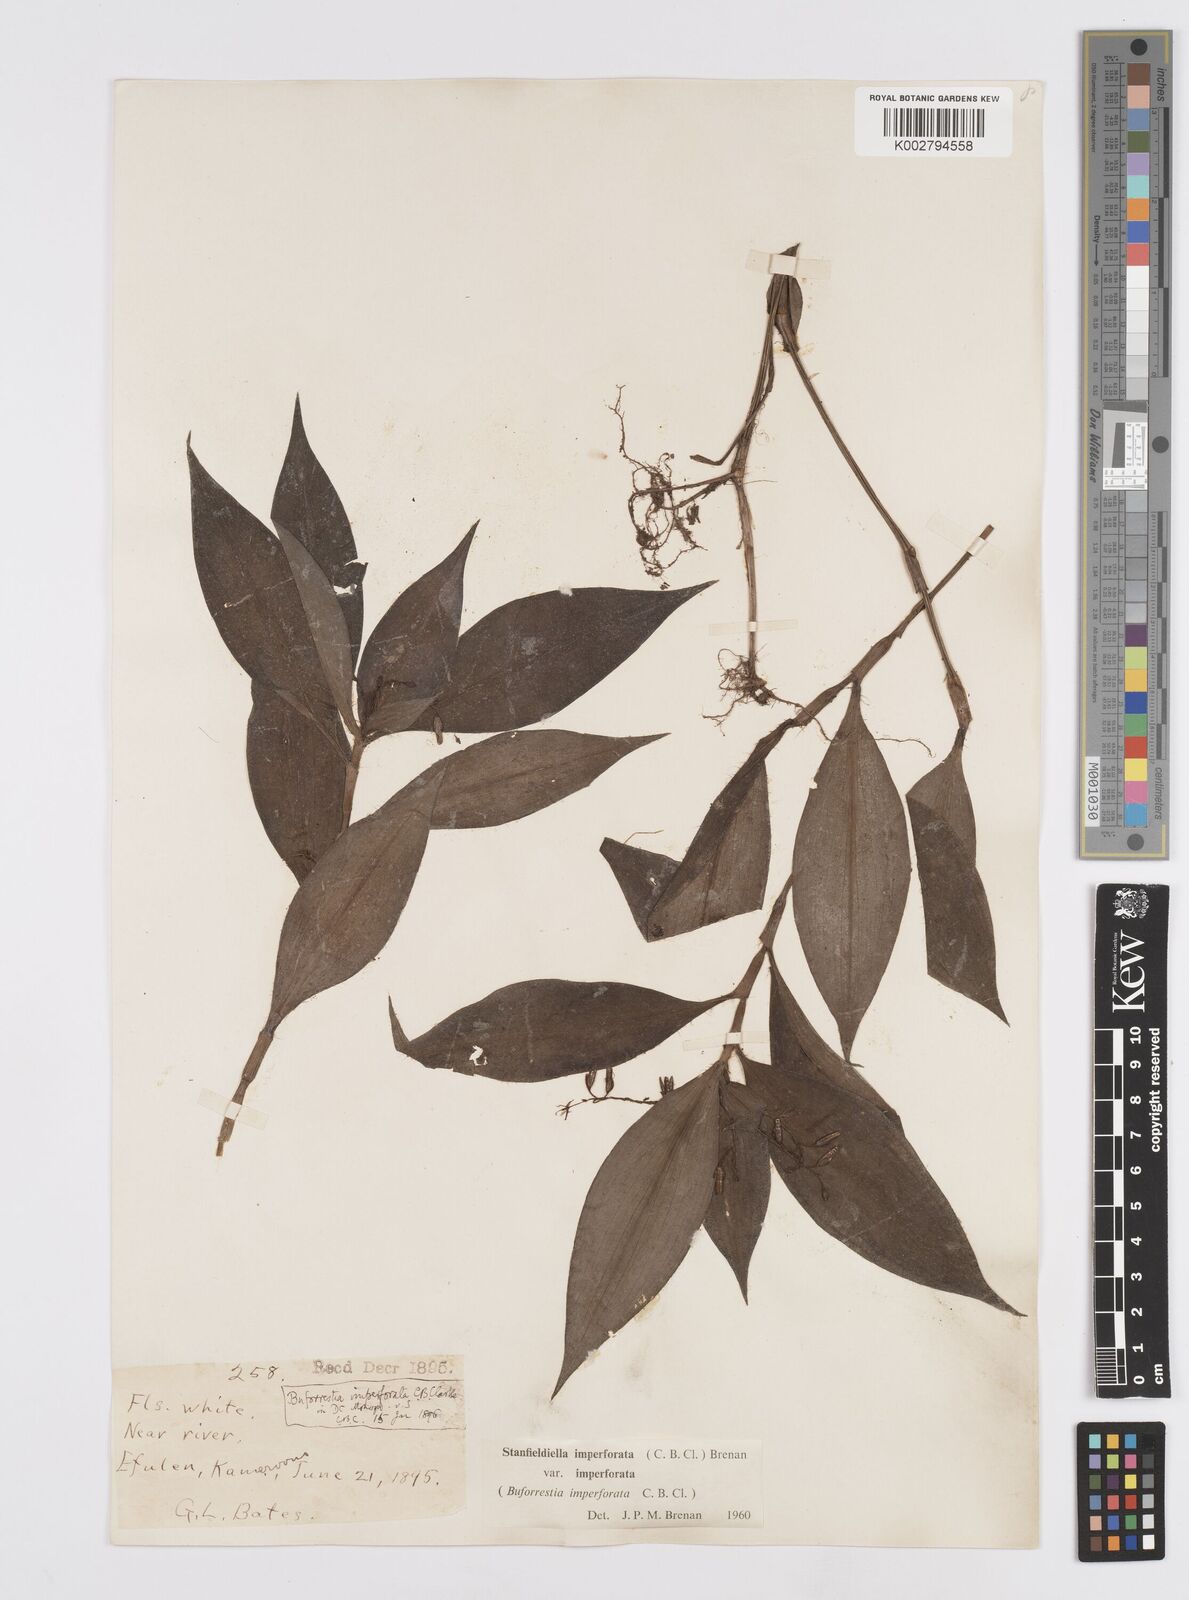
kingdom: Plantae
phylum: Tracheophyta
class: Liliopsida
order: Commelinales
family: Commelinaceae
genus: Stanfieldiella
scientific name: Stanfieldiella imperforata
